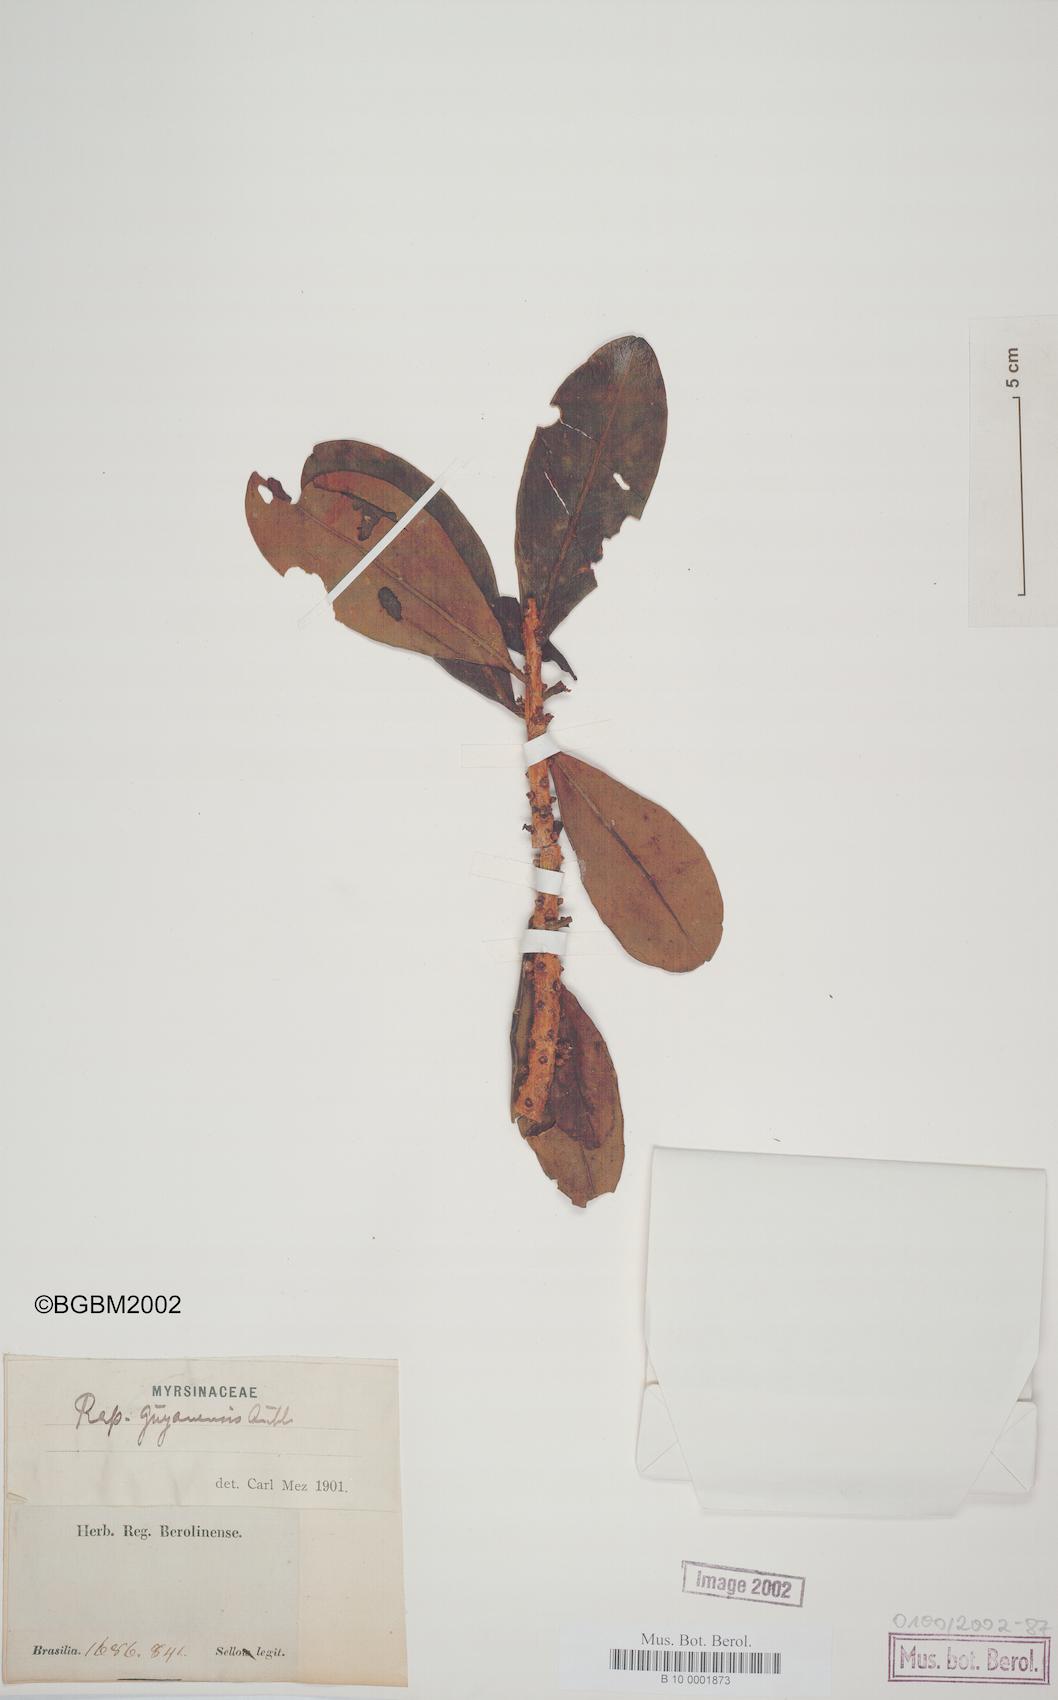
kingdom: Plantae
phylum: Tracheophyta
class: Magnoliopsida
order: Ericales
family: Primulaceae
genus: Myrsine
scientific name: Myrsine guianensis
